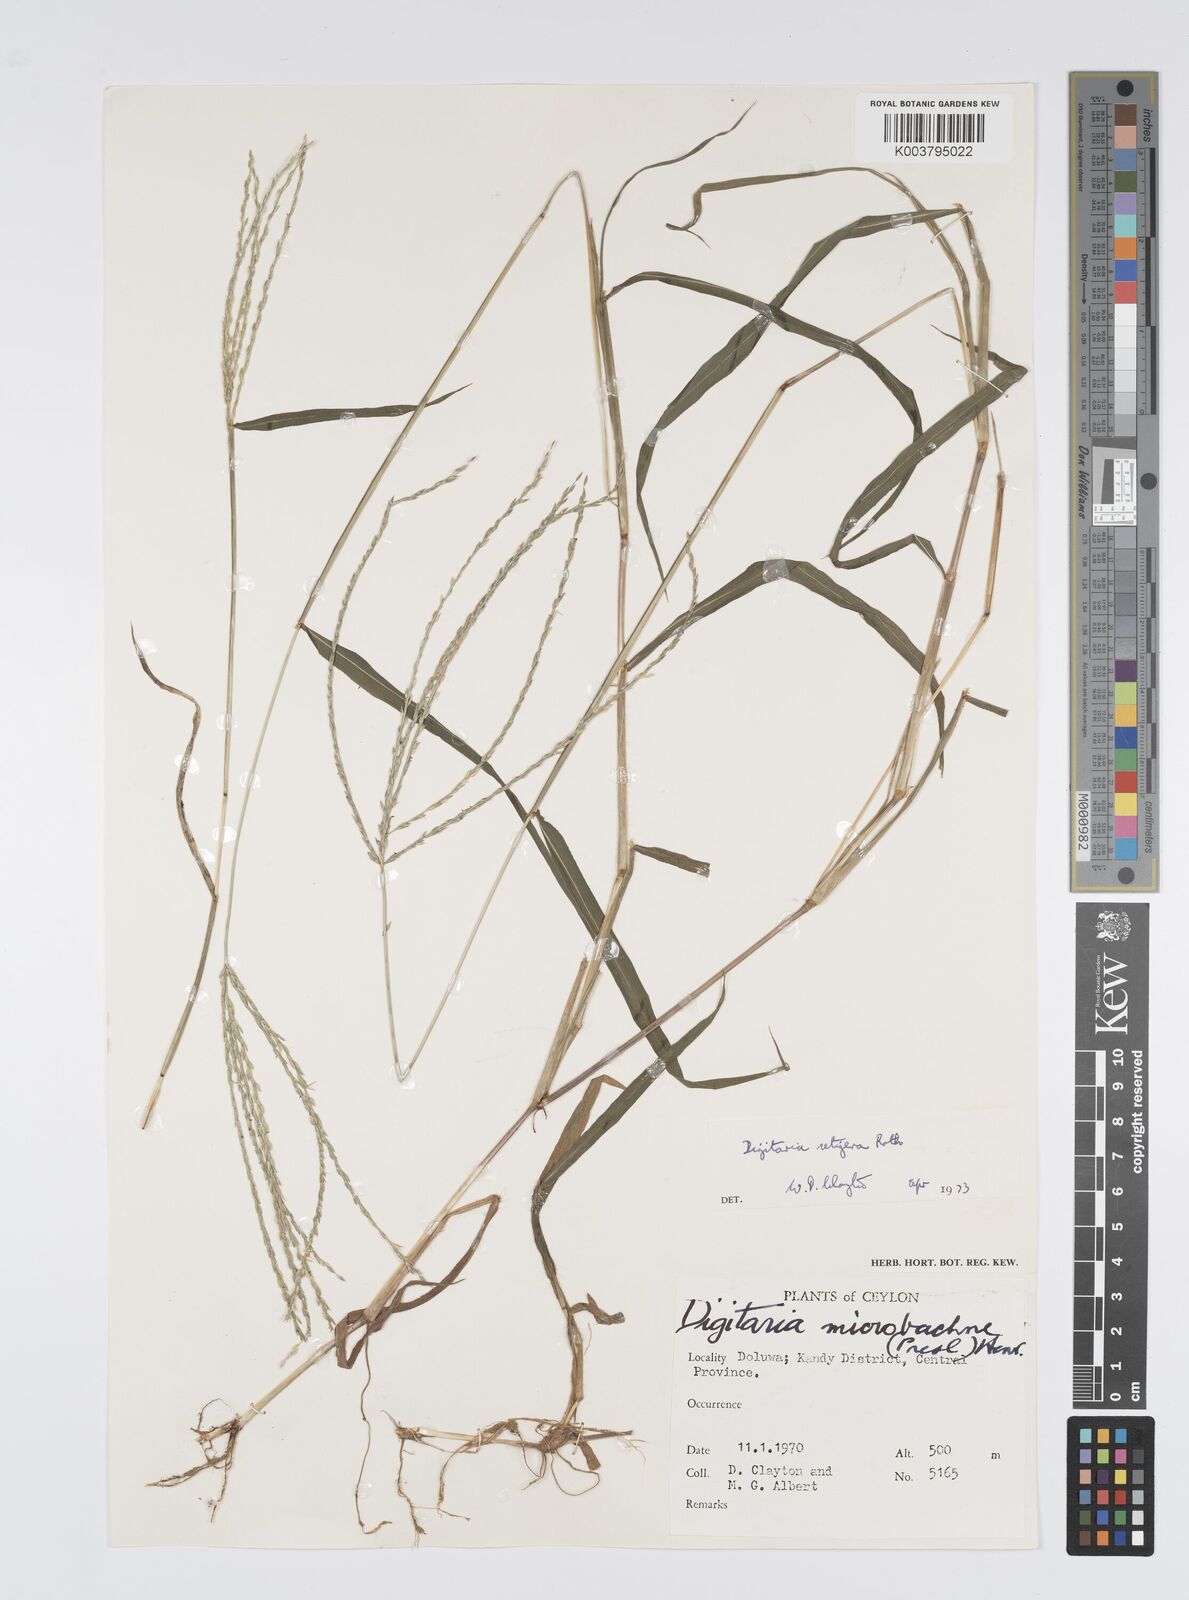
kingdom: Plantae
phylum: Tracheophyta
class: Liliopsida
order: Poales
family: Poaceae
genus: Digitaria
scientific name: Digitaria setigera
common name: East indian crabgrass
